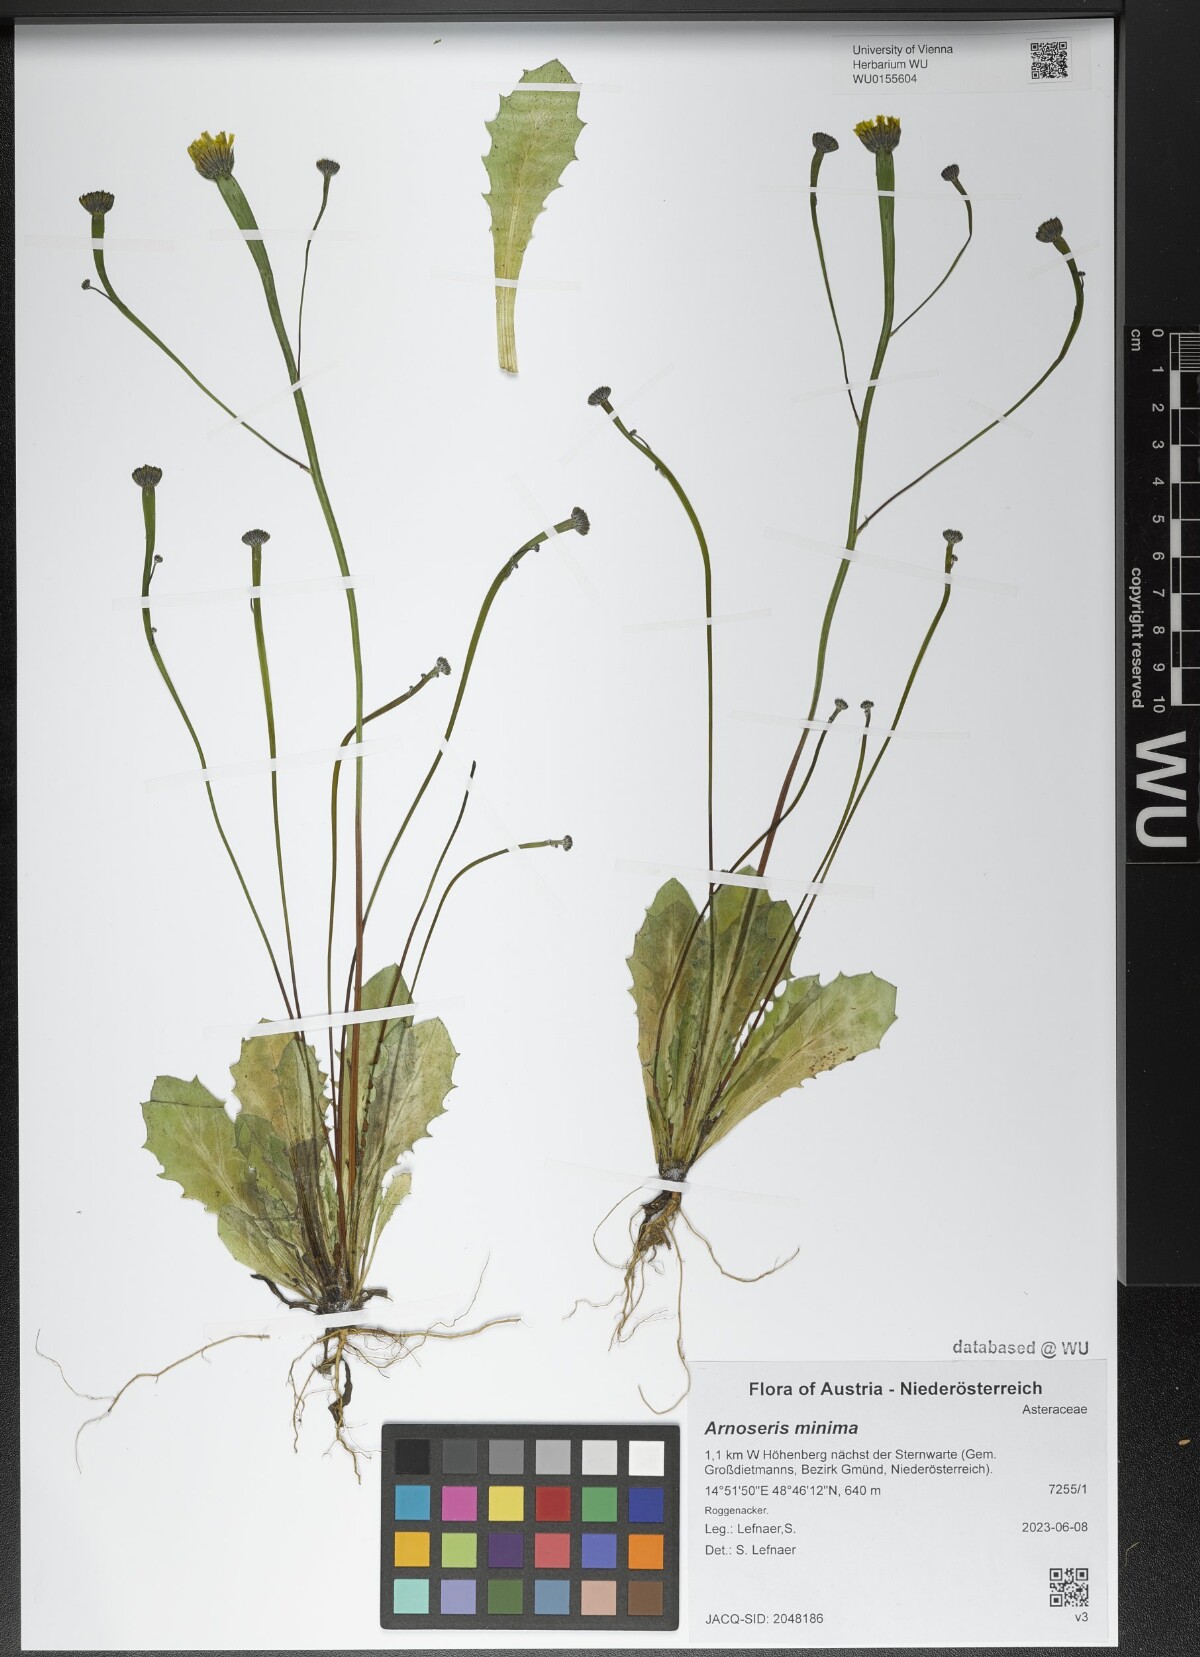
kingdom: Plantae
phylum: Tracheophyta
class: Magnoliopsida
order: Asterales
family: Asteraceae
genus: Arnoseris
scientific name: Arnoseris minima
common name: Lamb's succory
